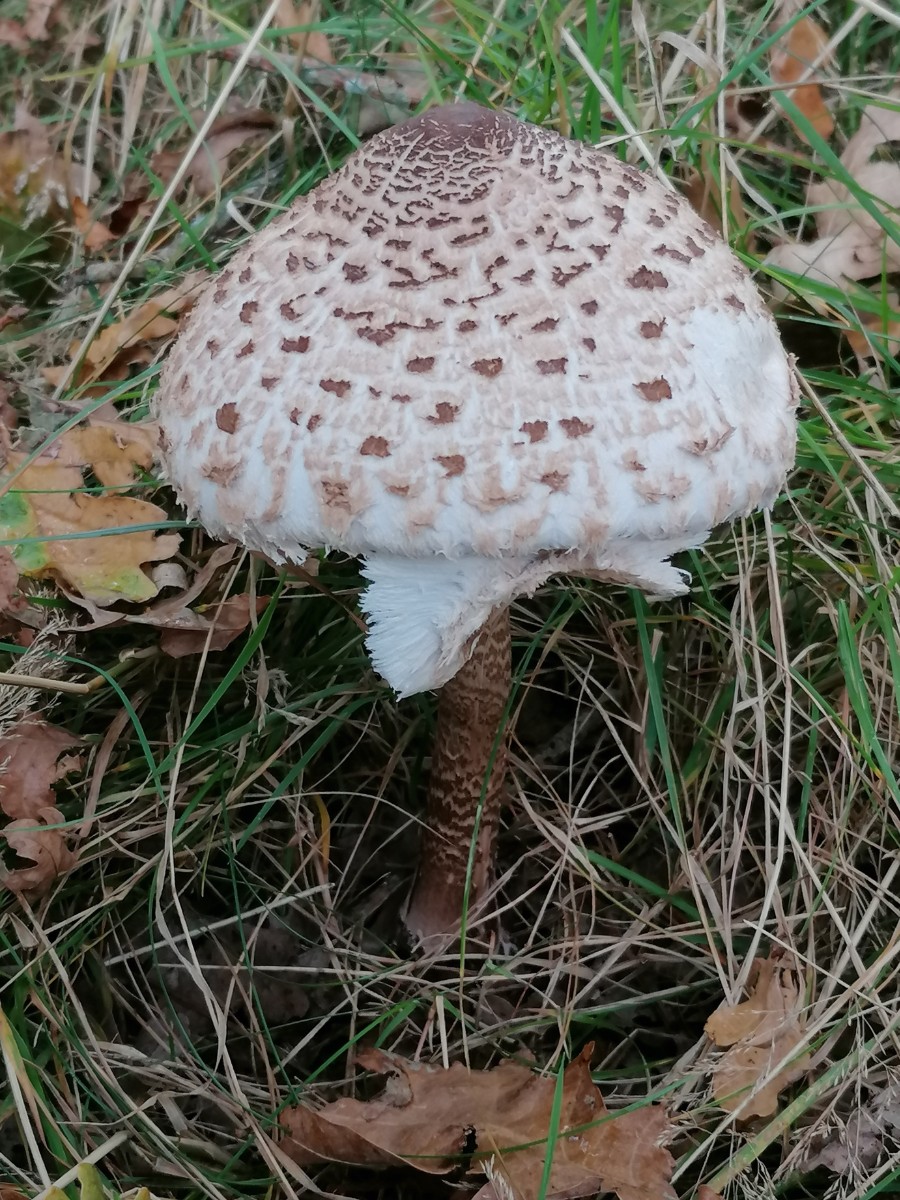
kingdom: Fungi
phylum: Basidiomycota
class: Agaricomycetes
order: Agaricales
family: Agaricaceae
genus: Macrolepiota
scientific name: Macrolepiota procera
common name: stor kæmpeparasolhat
